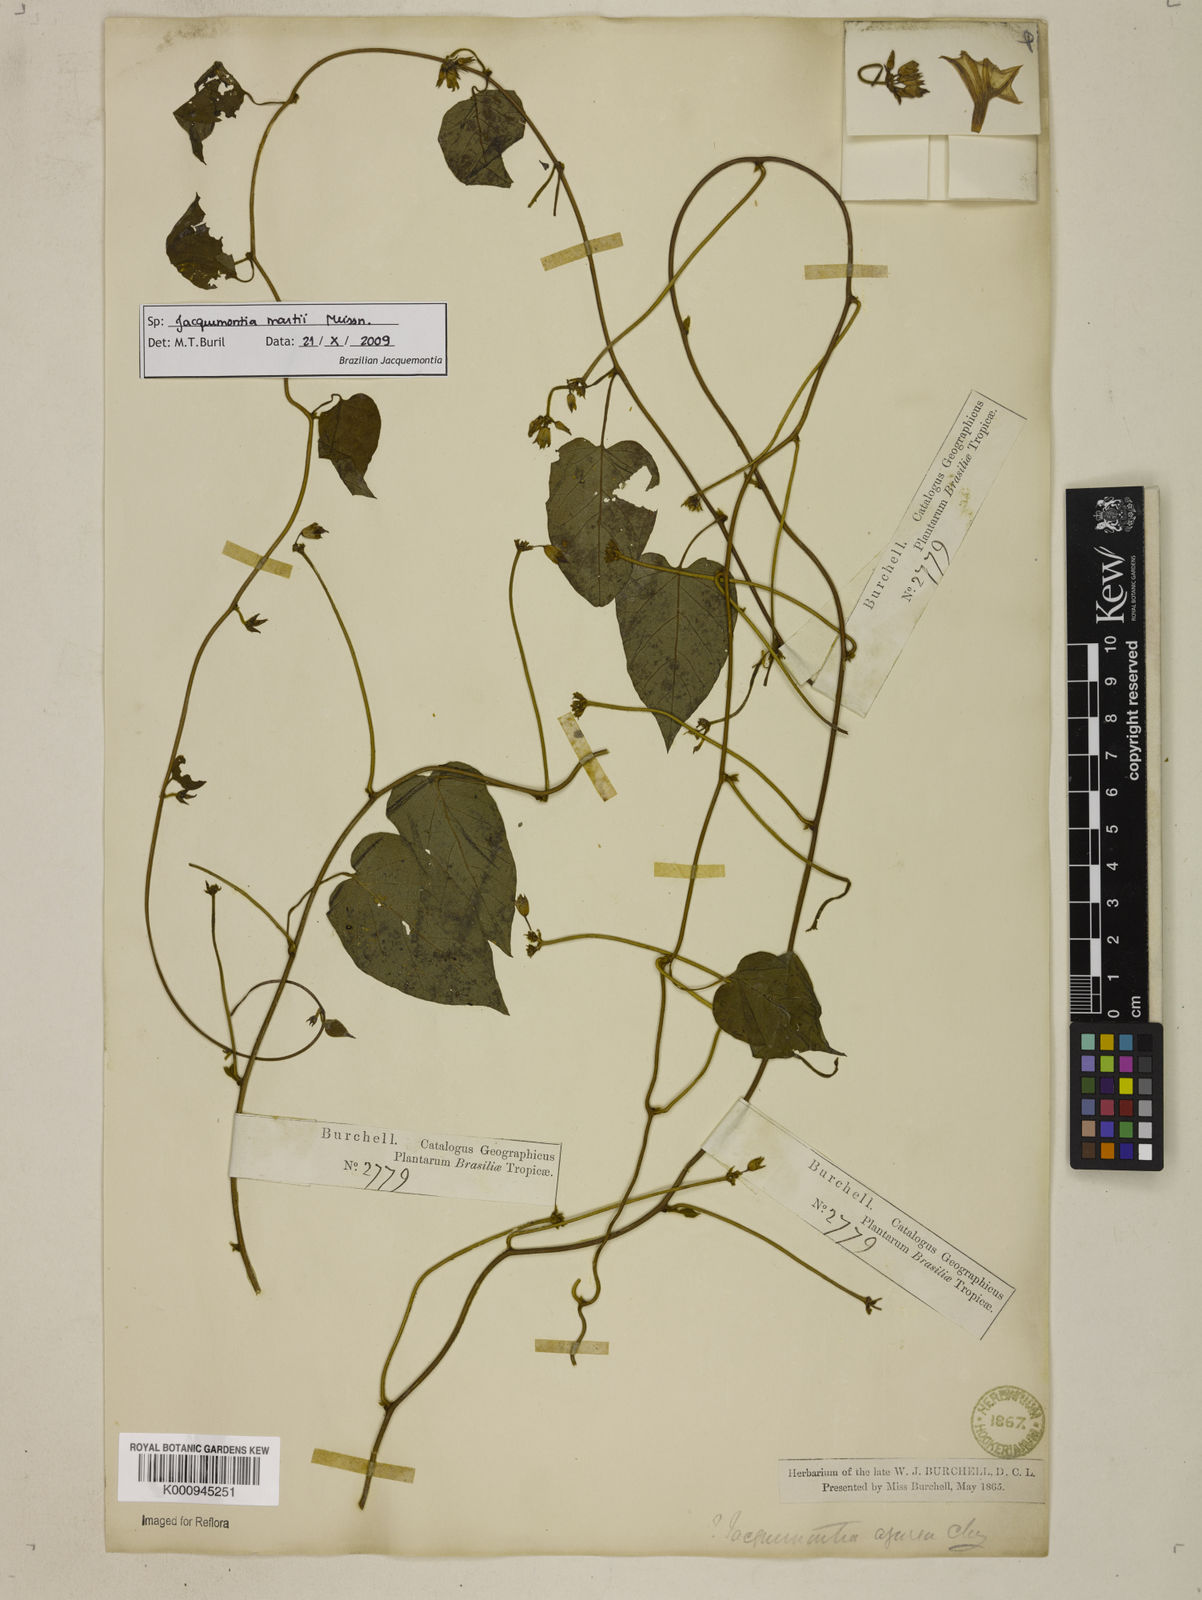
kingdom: Plantae
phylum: Tracheophyta
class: Magnoliopsida
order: Solanales
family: Convolvulaceae
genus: Jacquemontia
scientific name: Jacquemontia martii
